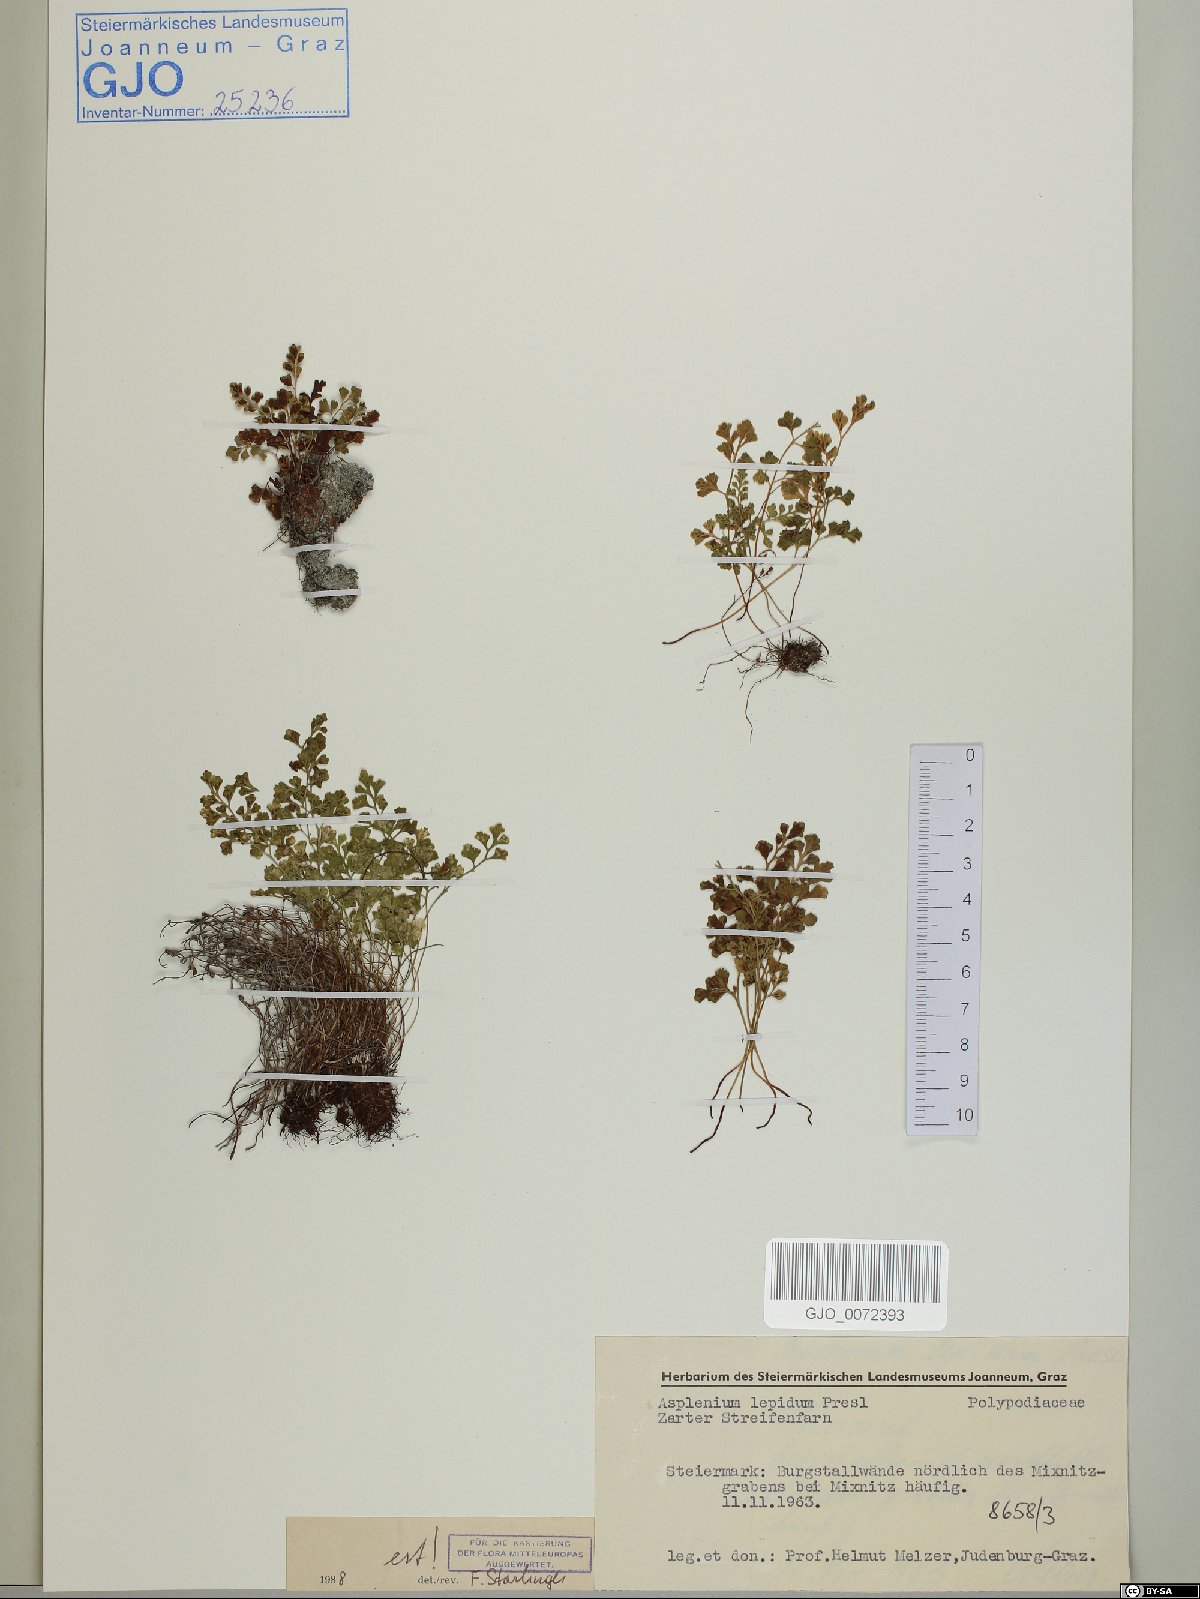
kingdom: Plantae
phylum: Tracheophyta
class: Polypodiopsida
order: Polypodiales
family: Aspleniaceae
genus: Asplenium
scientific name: Asplenium lepidum
